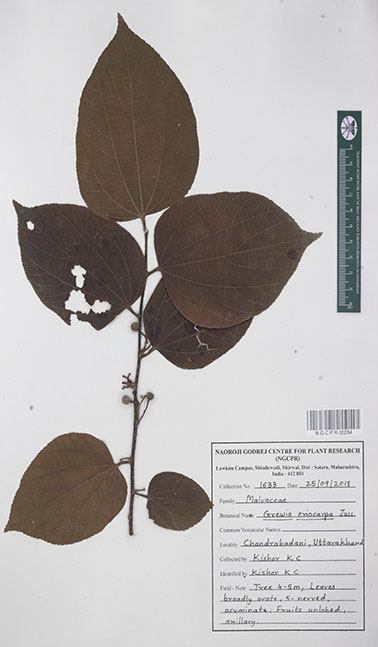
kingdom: Plantae
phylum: Tracheophyta
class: Magnoliopsida
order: Malvales
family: Malvaceae
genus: Grewia
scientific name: Grewia eriocarpa
